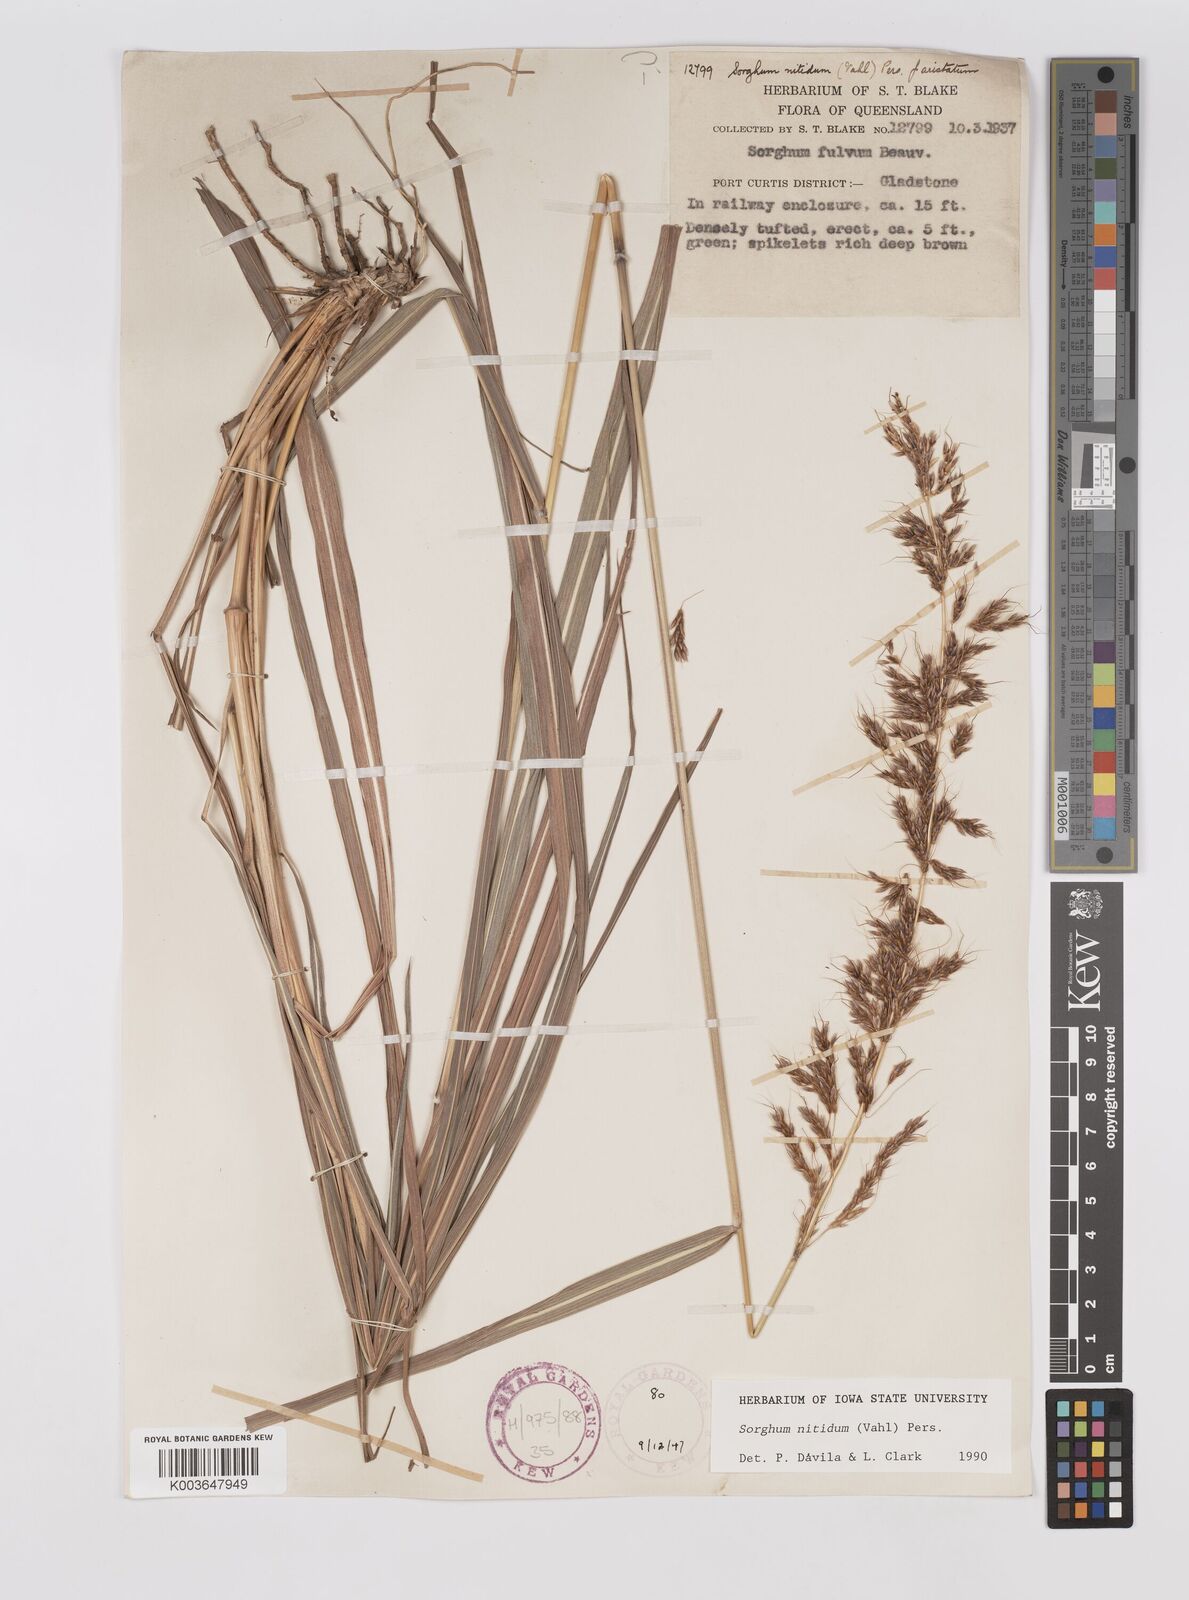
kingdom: Plantae
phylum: Tracheophyta
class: Liliopsida
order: Poales
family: Poaceae
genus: Sorghum
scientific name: Sorghum nitidum
